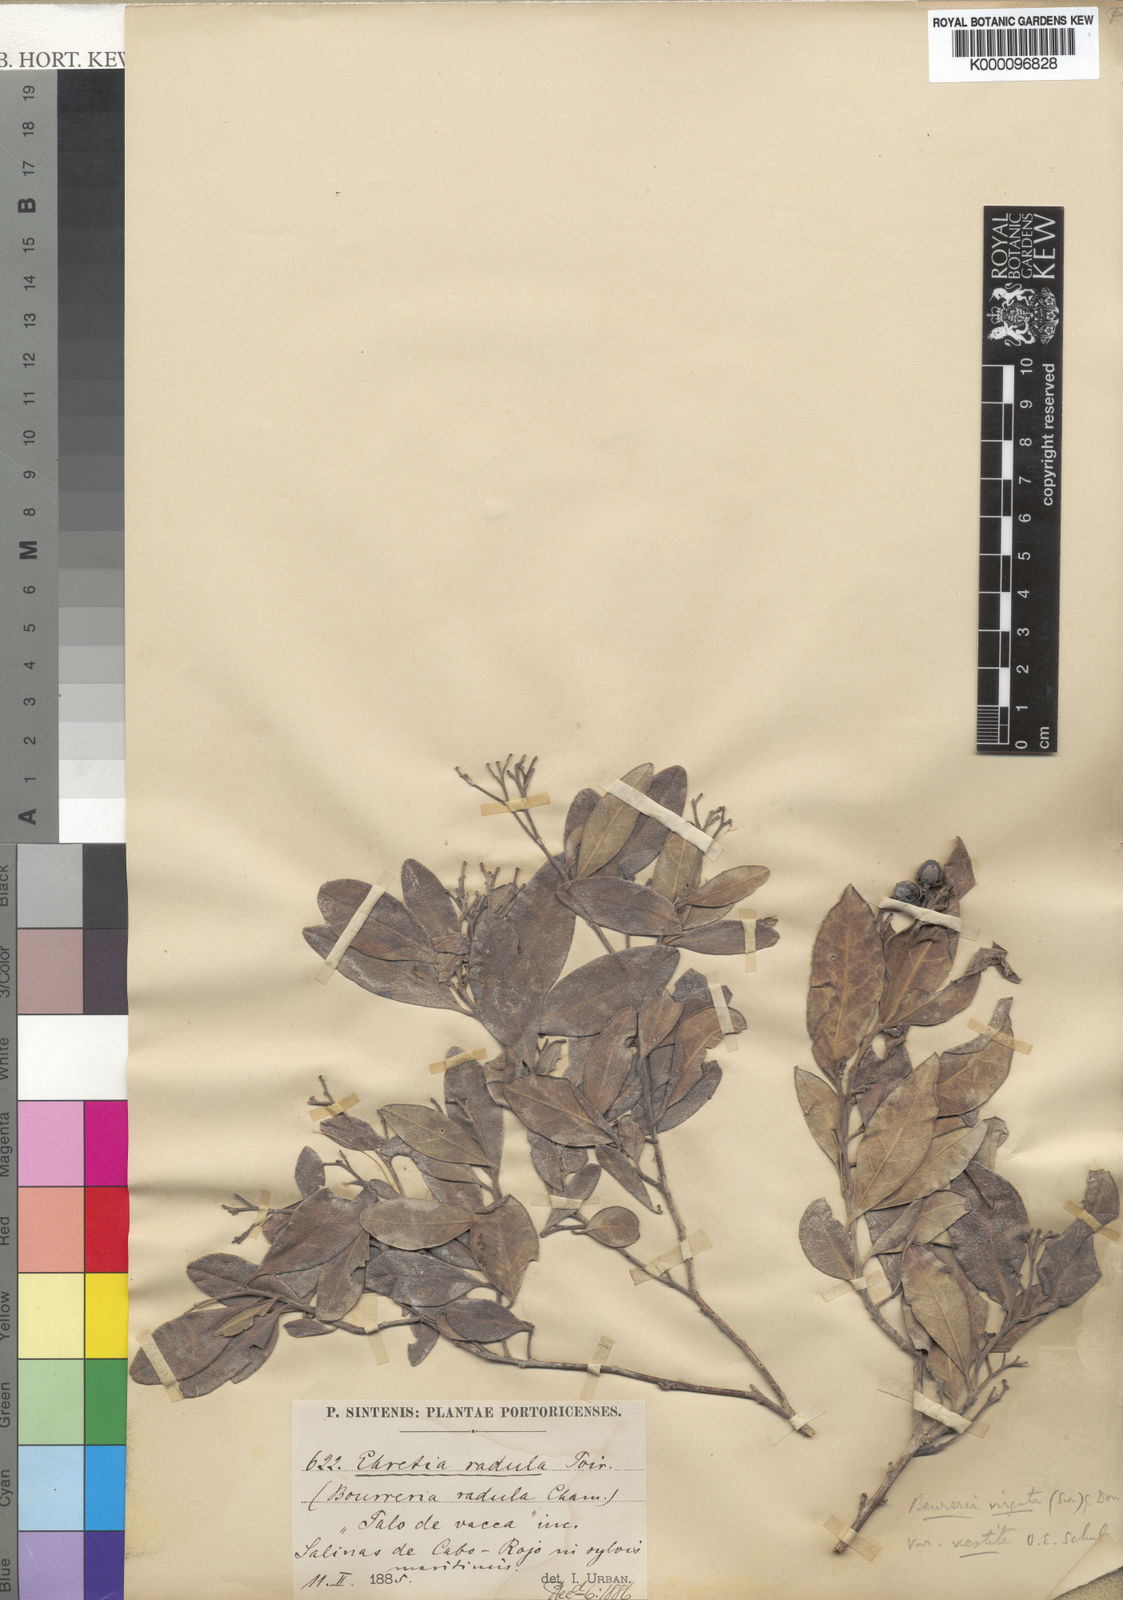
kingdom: Plantae
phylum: Tracheophyta
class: Magnoliopsida
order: Boraginales
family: Ehretiaceae
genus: Bourreria
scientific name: Bourreria virgata
